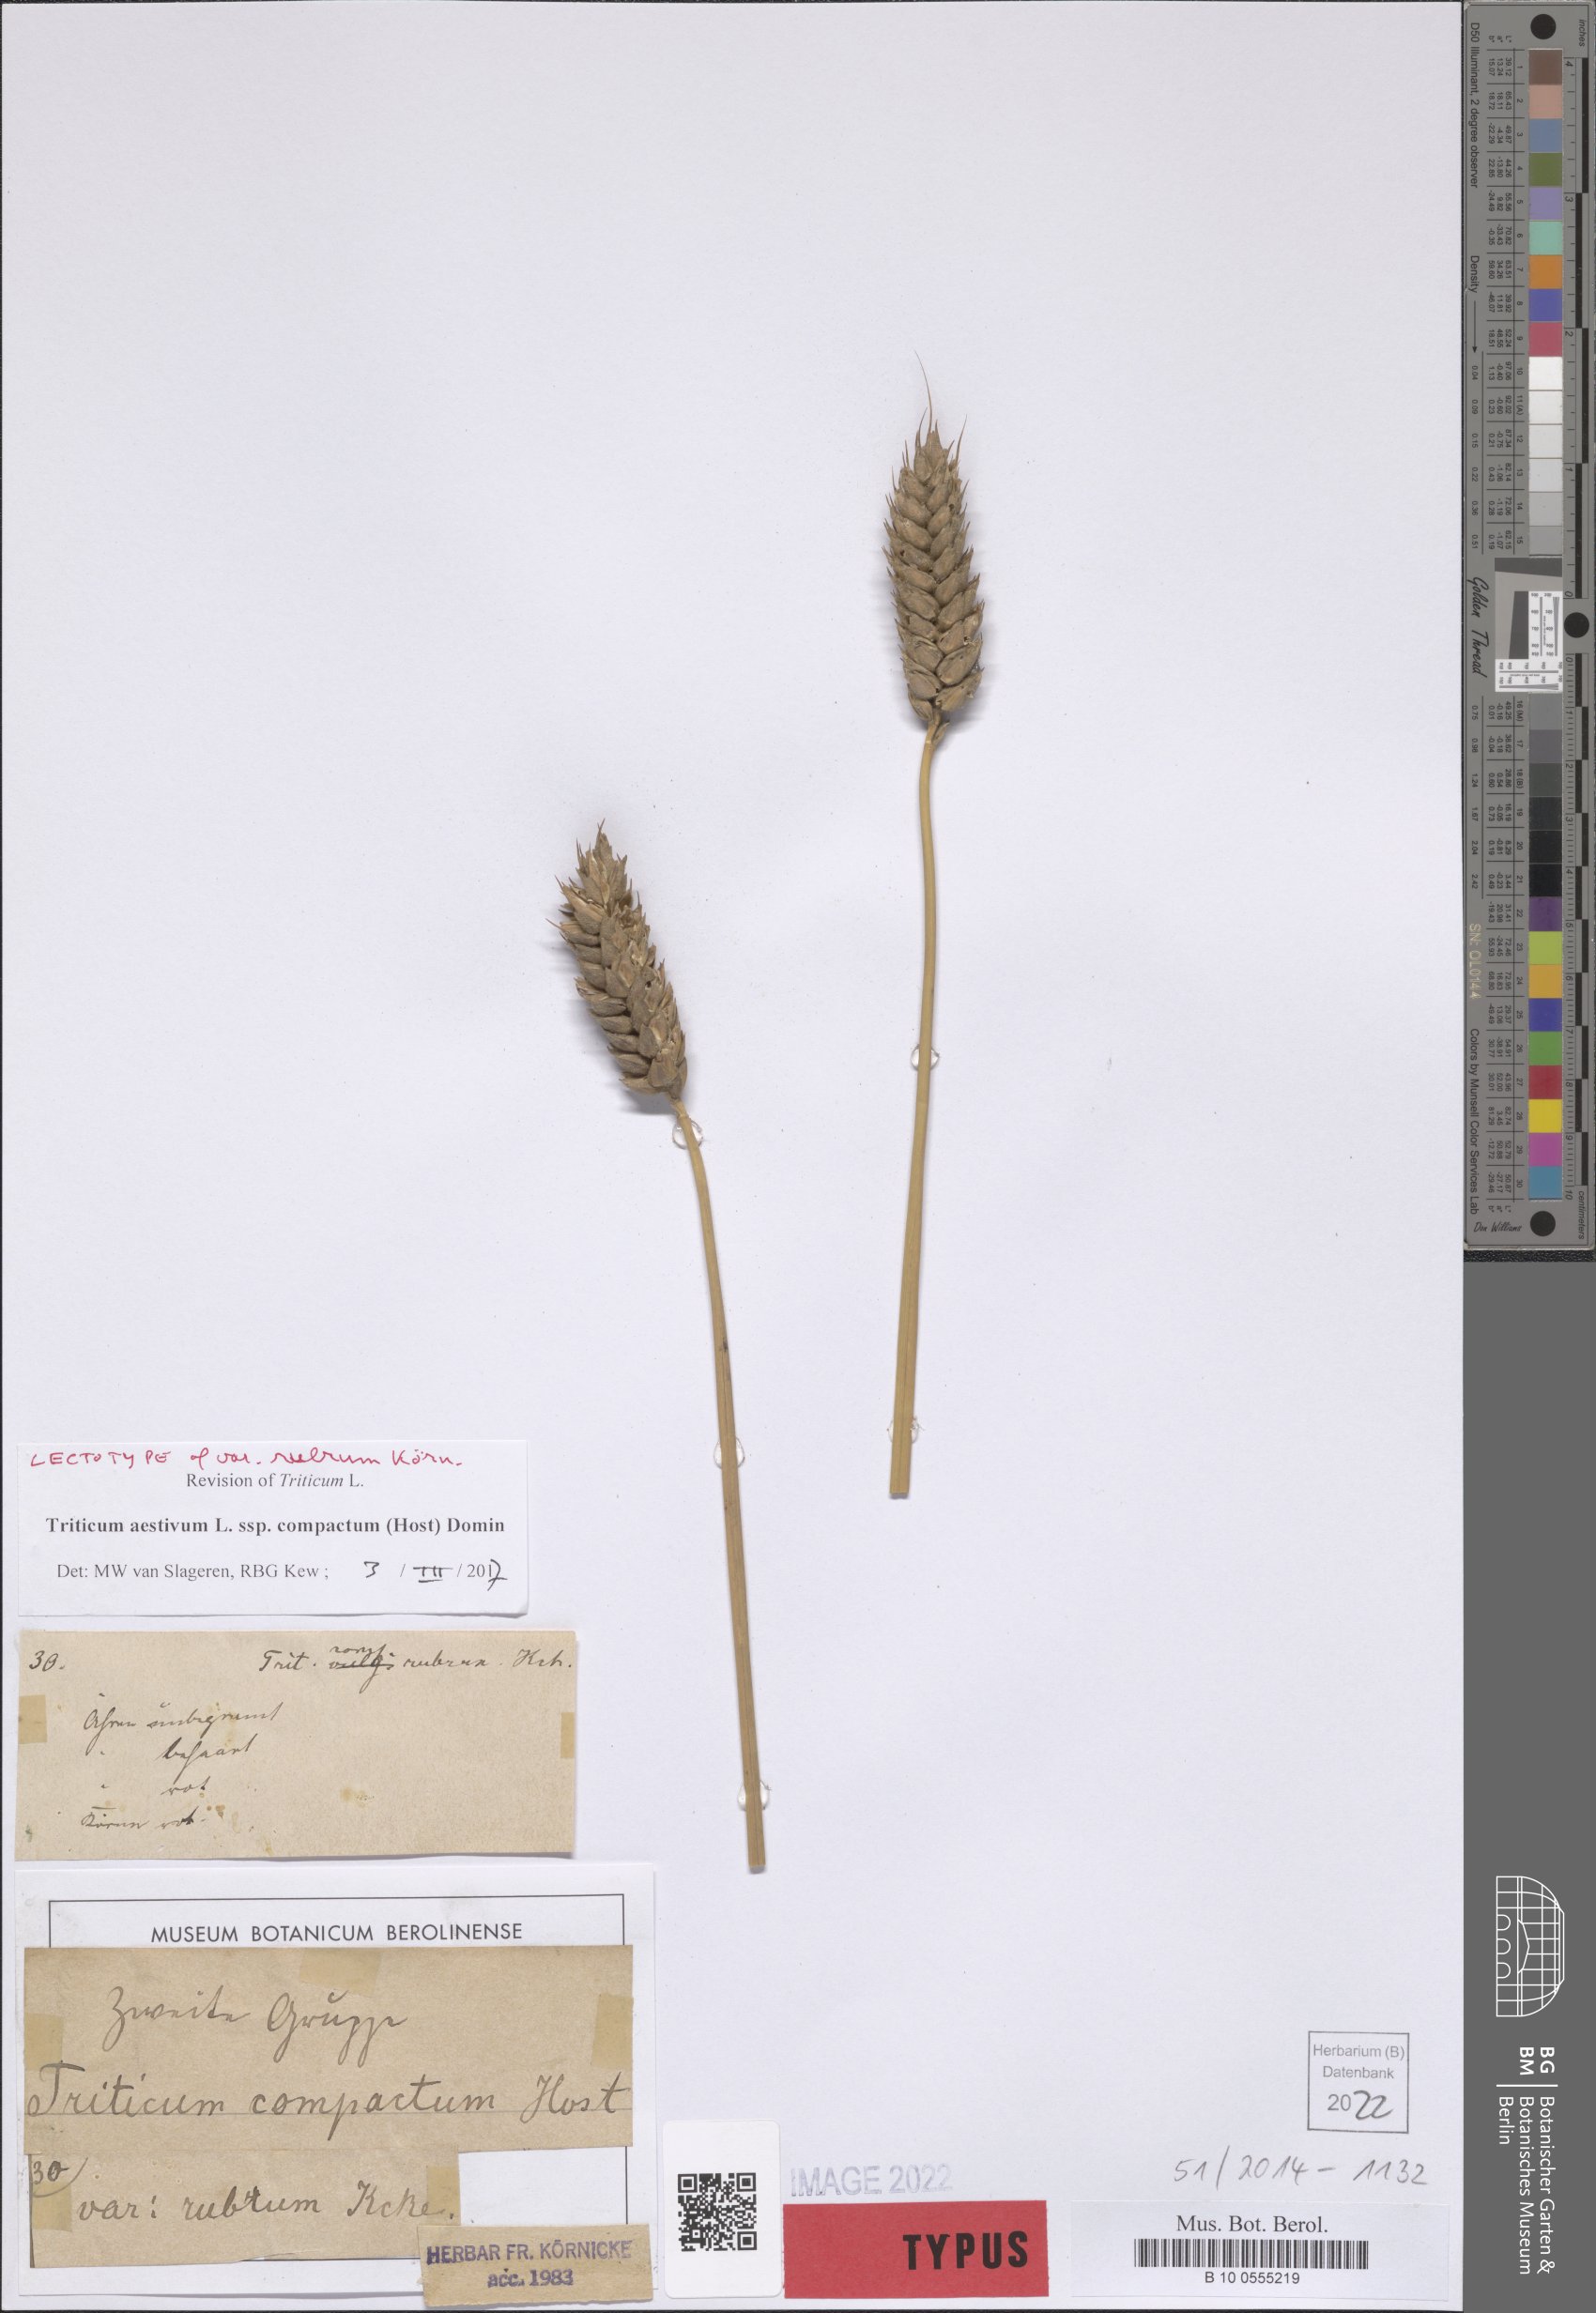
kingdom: Plantae
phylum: Tracheophyta
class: Liliopsida
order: Poales
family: Poaceae
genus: Triticum
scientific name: Triticum aestivum
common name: Common wheat
